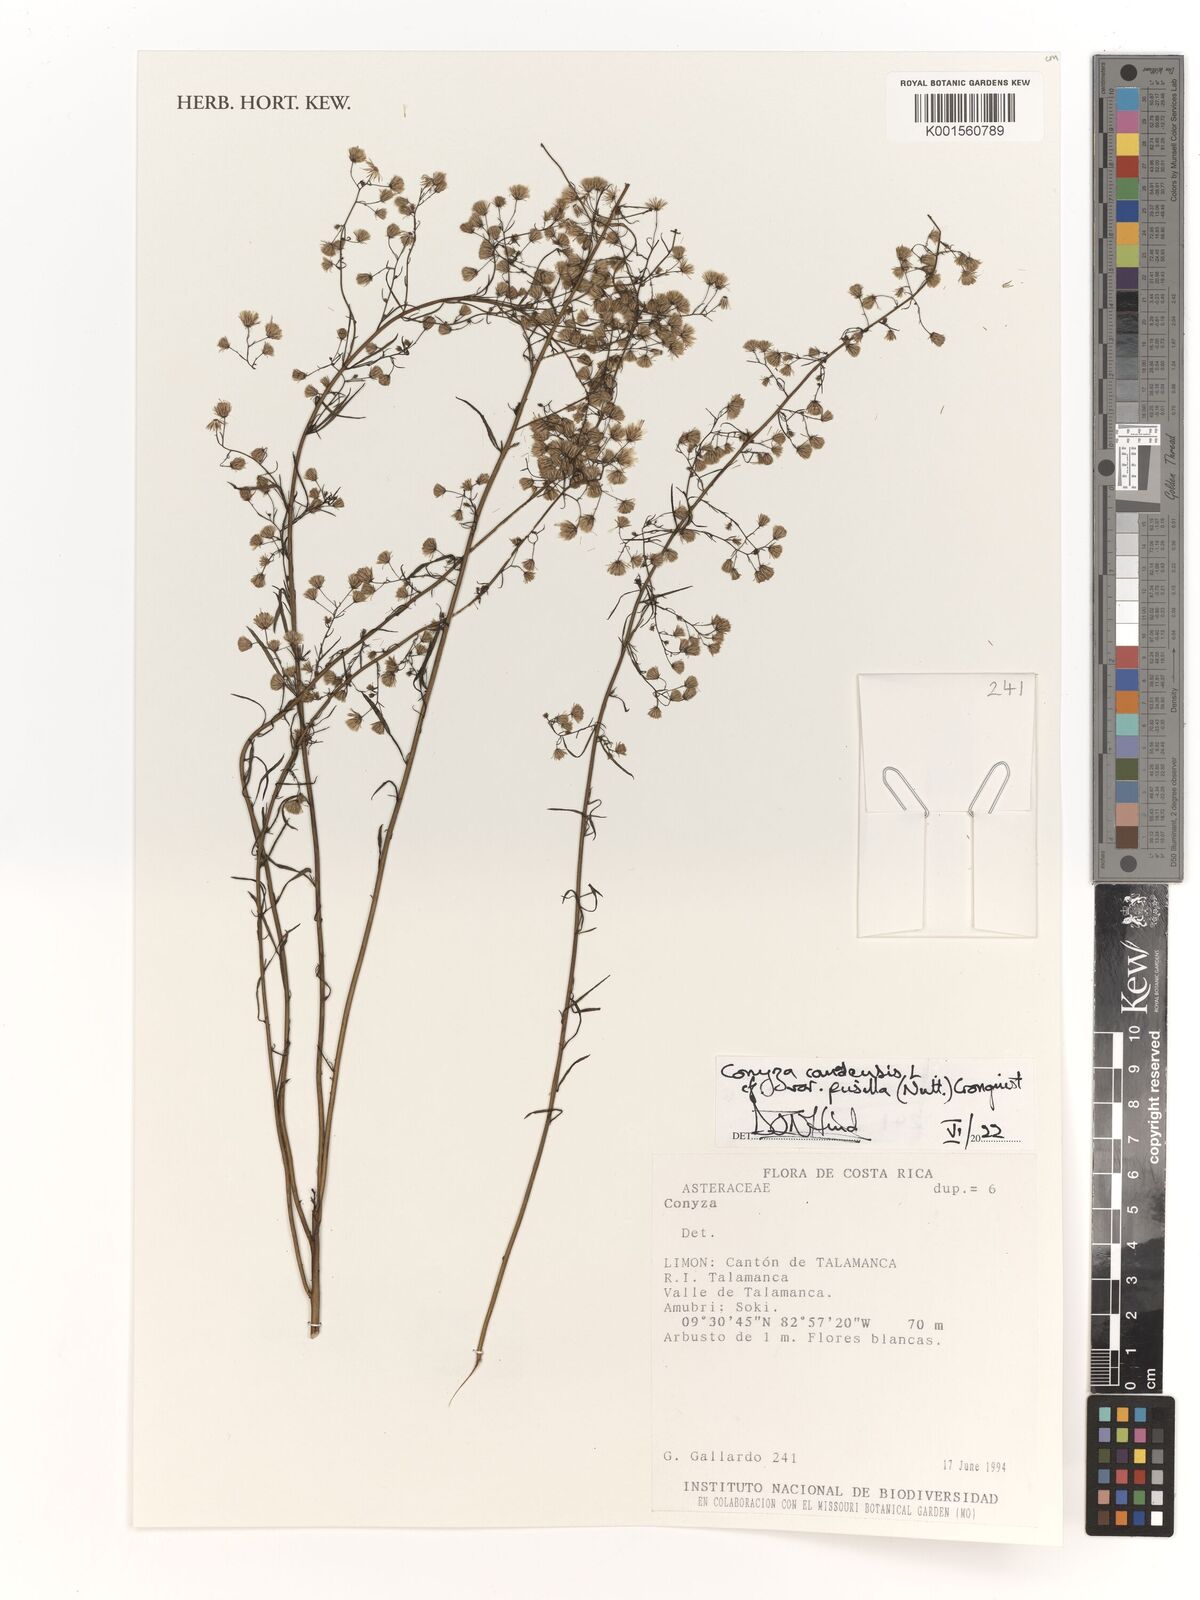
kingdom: Plantae
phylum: Tracheophyta
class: Magnoliopsida
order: Asterales
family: Asteraceae
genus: Erigeron
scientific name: Erigeron canadensis
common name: Canadian fleabane
